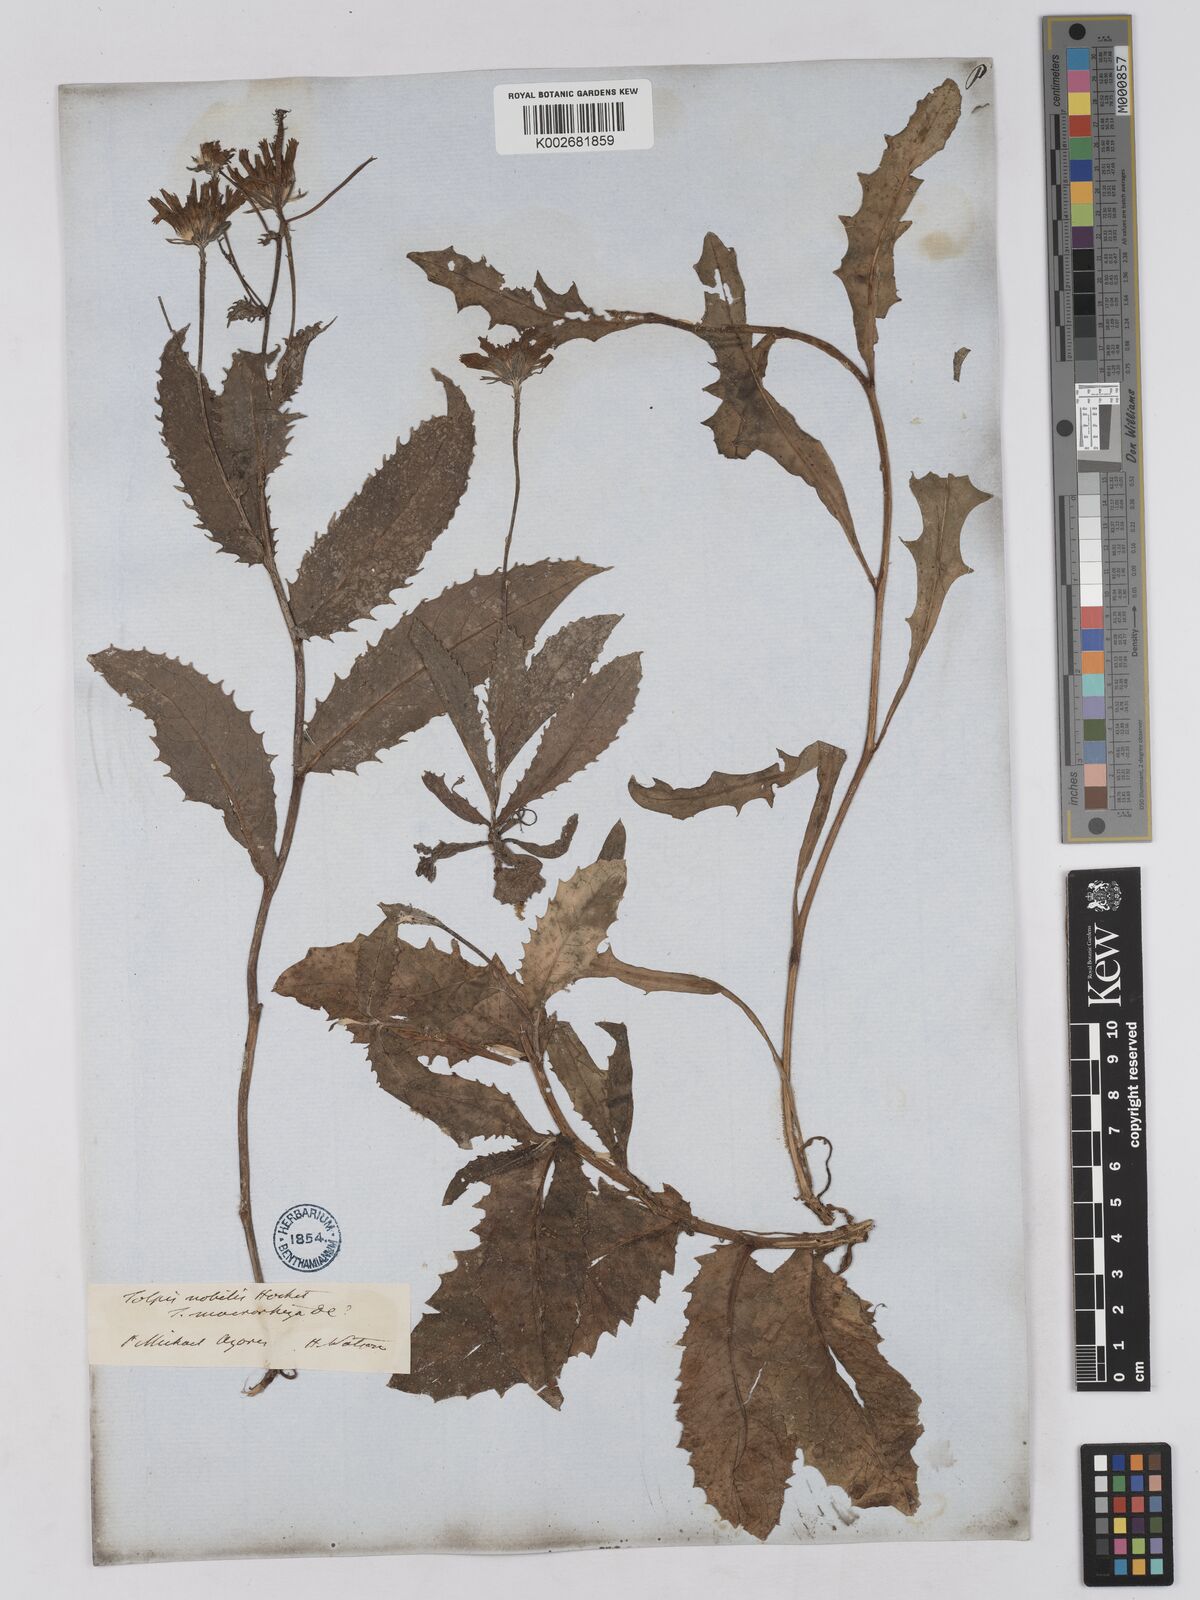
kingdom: Plantae
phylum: Tracheophyta
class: Magnoliopsida
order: Asterales
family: Asteraceae
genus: Tolpis
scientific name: Tolpis nobilis
